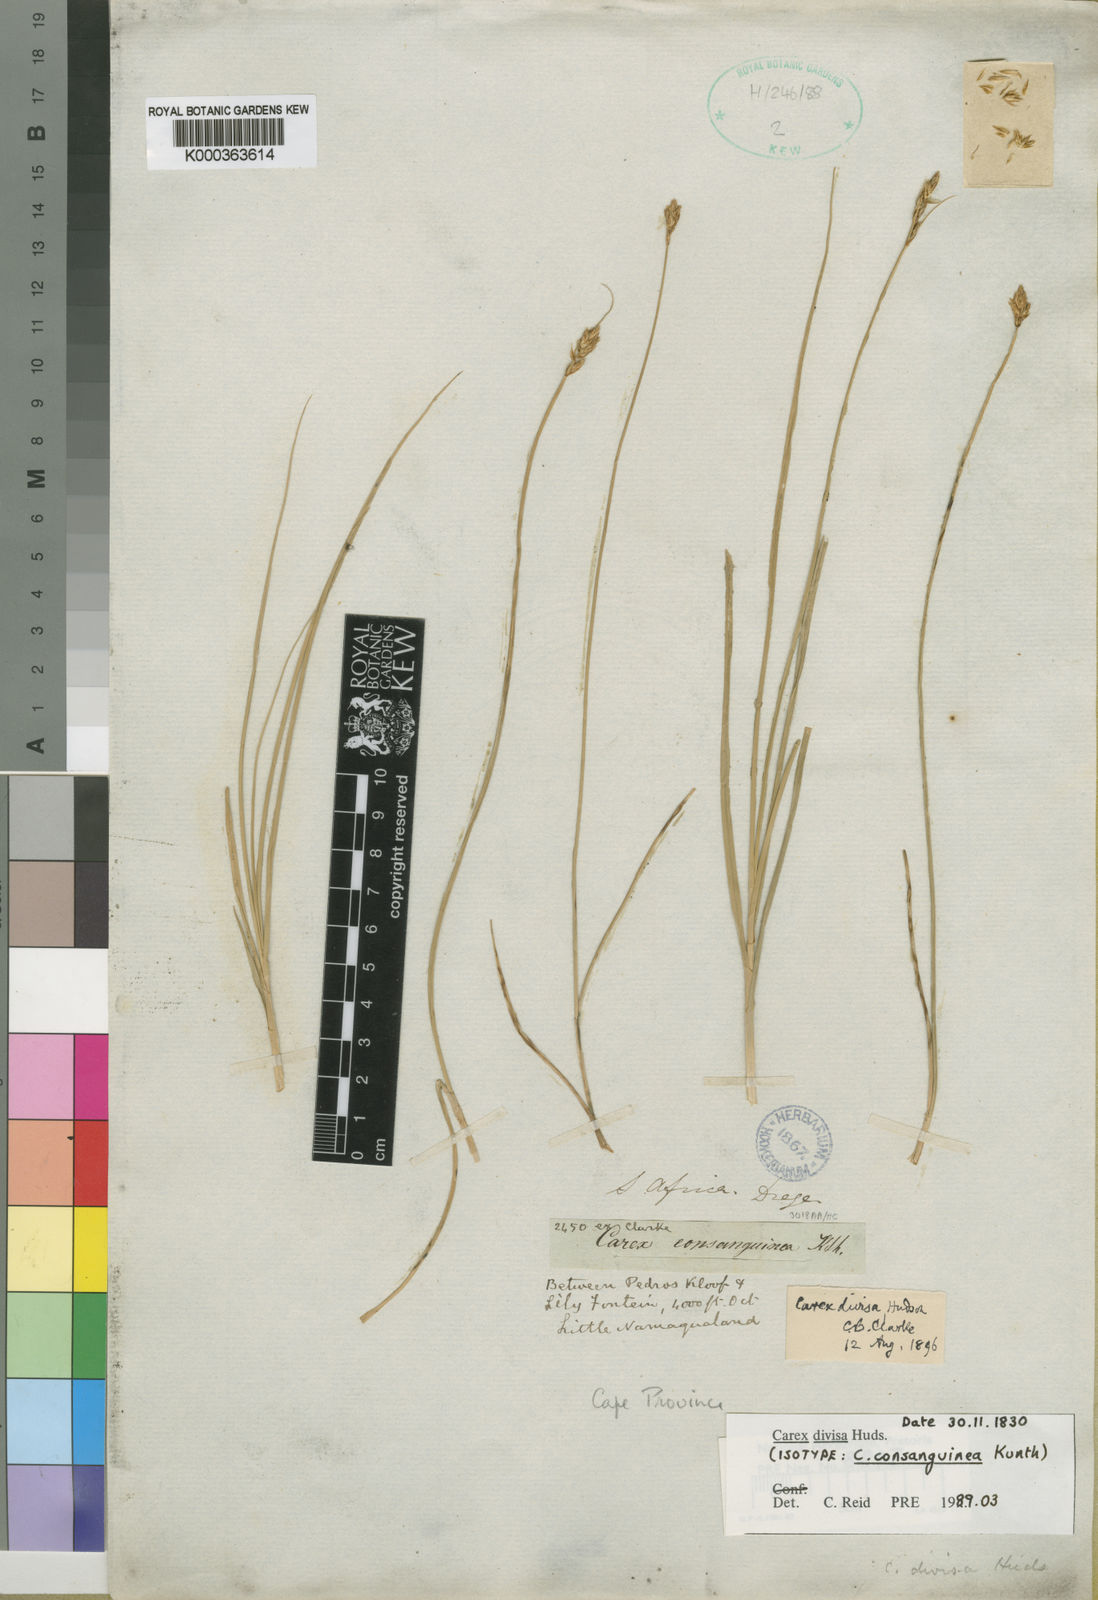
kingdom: Plantae
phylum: Tracheophyta
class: Liliopsida
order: Poales
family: Cyperaceae
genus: Carex
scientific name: Carex divisa
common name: Divided sedge
